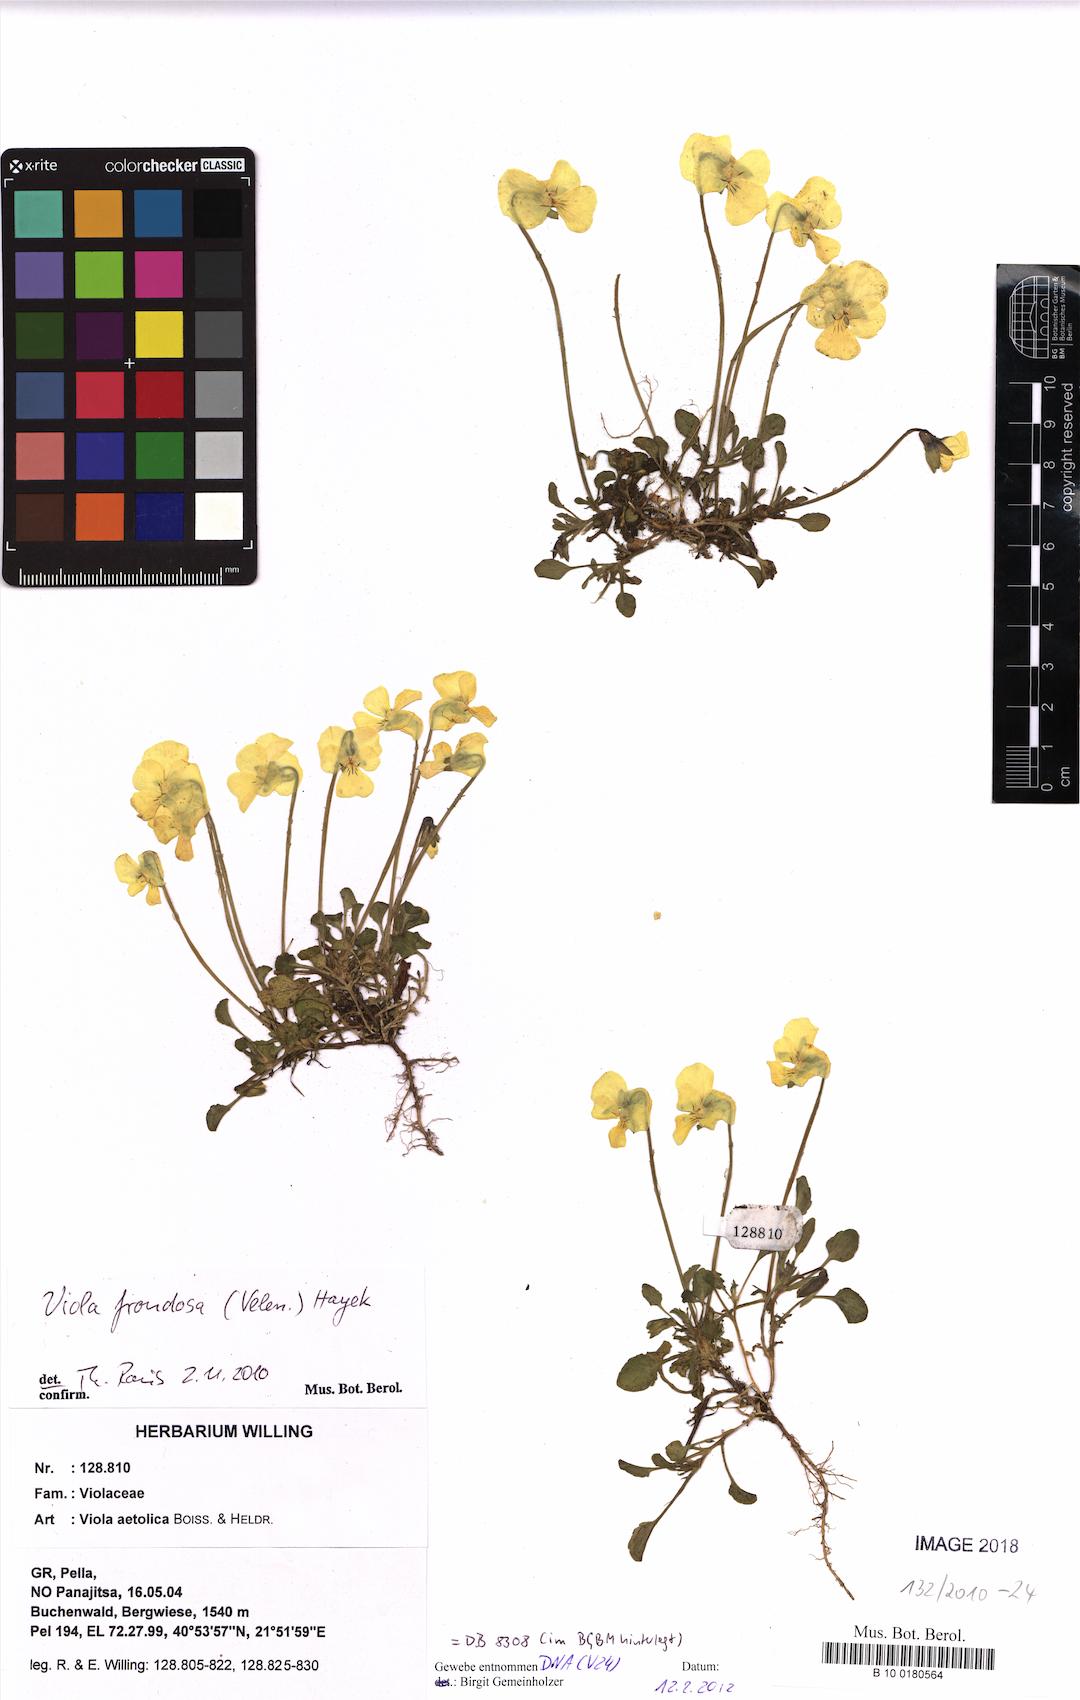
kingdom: Plantae
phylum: Tracheophyta
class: Magnoliopsida
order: Malpighiales
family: Violaceae
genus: Viola
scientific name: Viola frondosa
